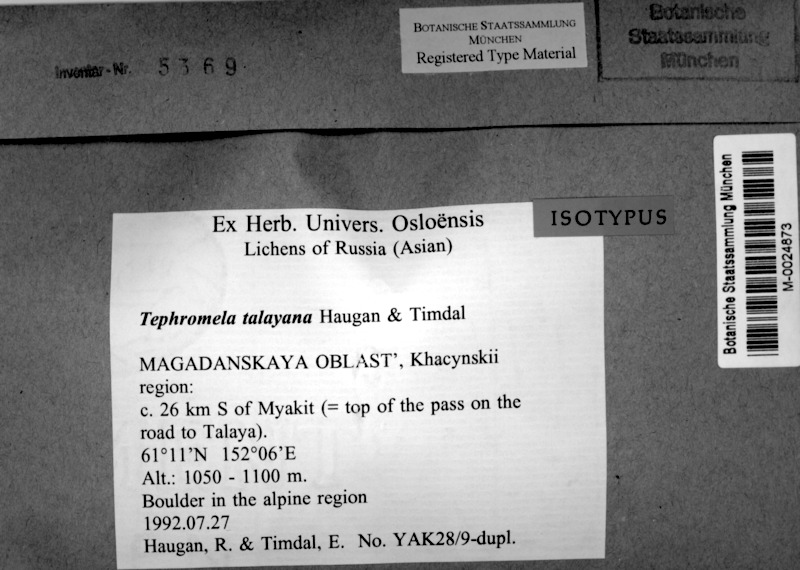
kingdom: Fungi
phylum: Ascomycota
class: Lecanoromycetes
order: Lecanorales
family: Tephromelataceae
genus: Calvitimela
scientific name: Calvitimela talayana
